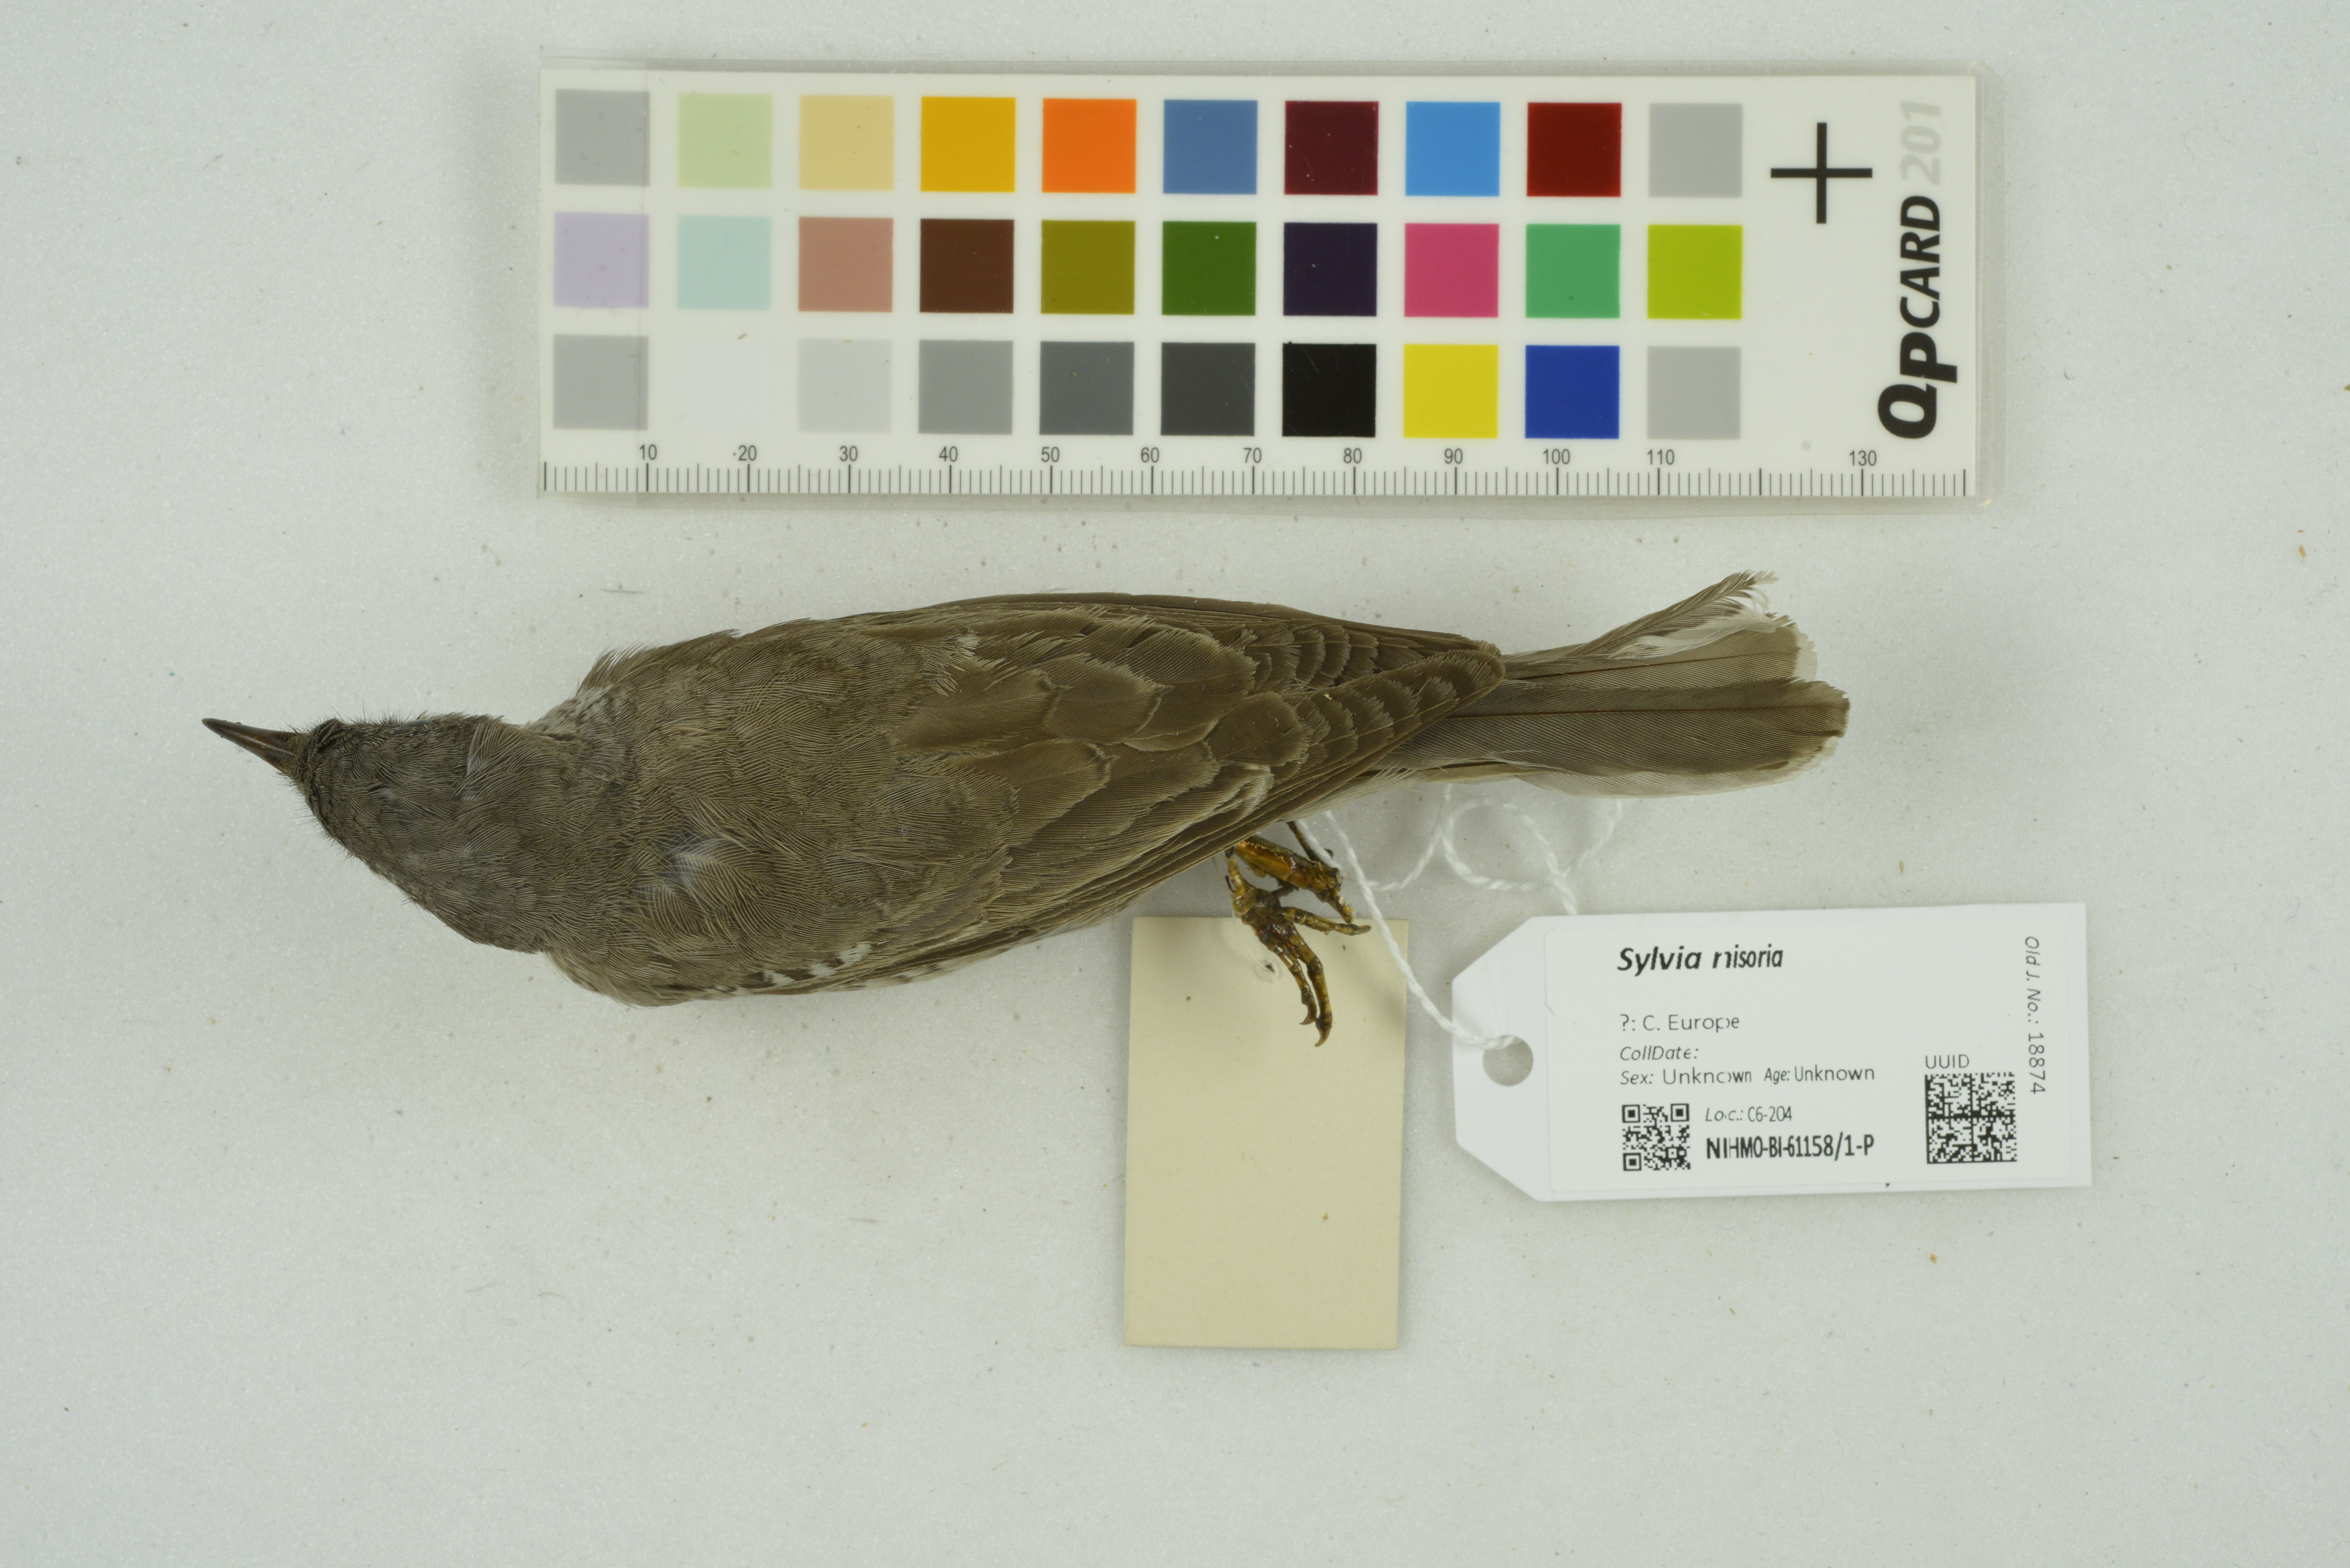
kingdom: Animalia
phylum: Chordata
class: Aves
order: Passeriformes
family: Sylviidae
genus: Sylvia
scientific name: Sylvia nisoria
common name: Barred warbler
